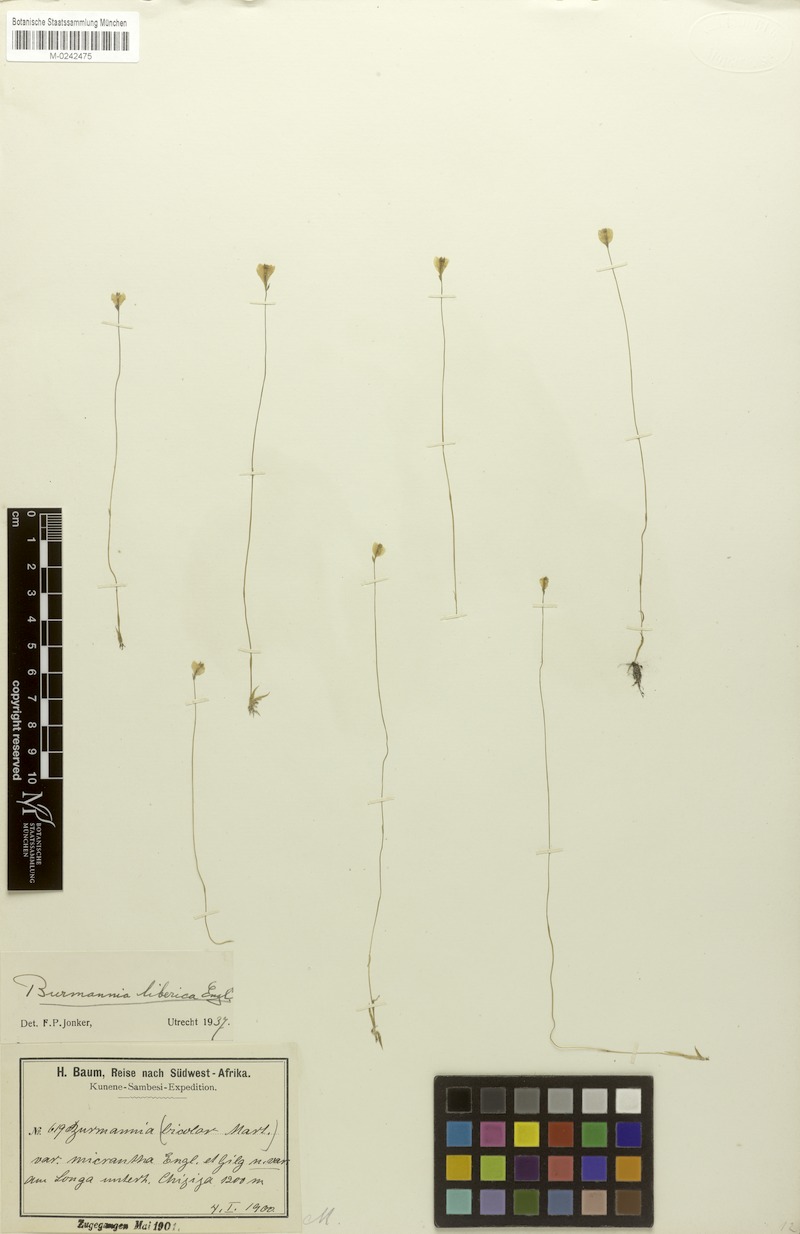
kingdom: Plantae
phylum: Tracheophyta
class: Liliopsida
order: Dioscoreales
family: Burmanniaceae
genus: Burmannia
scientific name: Burmannia latialata
